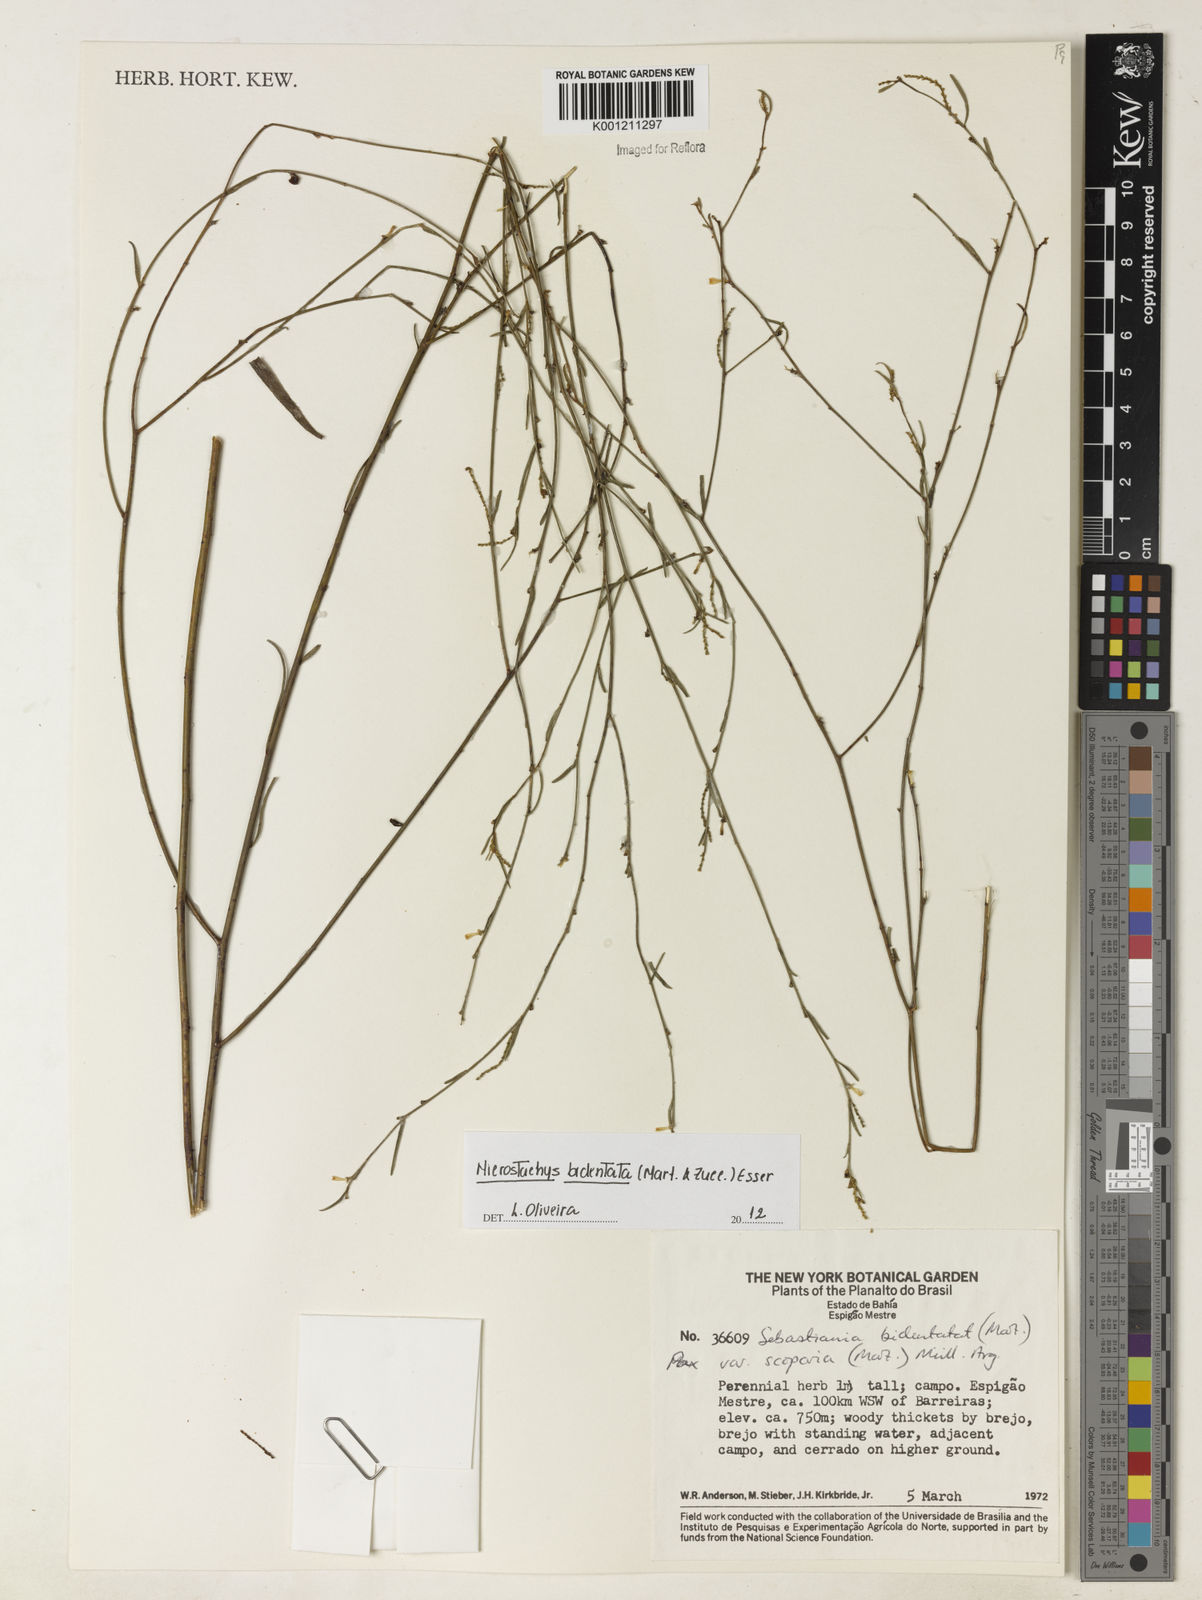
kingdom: Plantae
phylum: Tracheophyta
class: Magnoliopsida
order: Malpighiales
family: Euphorbiaceae
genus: Microstachys
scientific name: Microstachys bidentata
